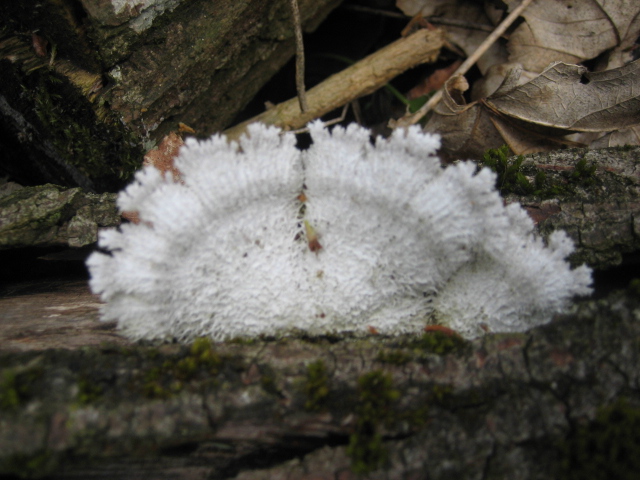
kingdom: Fungi
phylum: Basidiomycota
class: Agaricomycetes
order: Agaricales
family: Schizophyllaceae
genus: Schizophyllum
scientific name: Schizophyllum commune
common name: kløvblad
